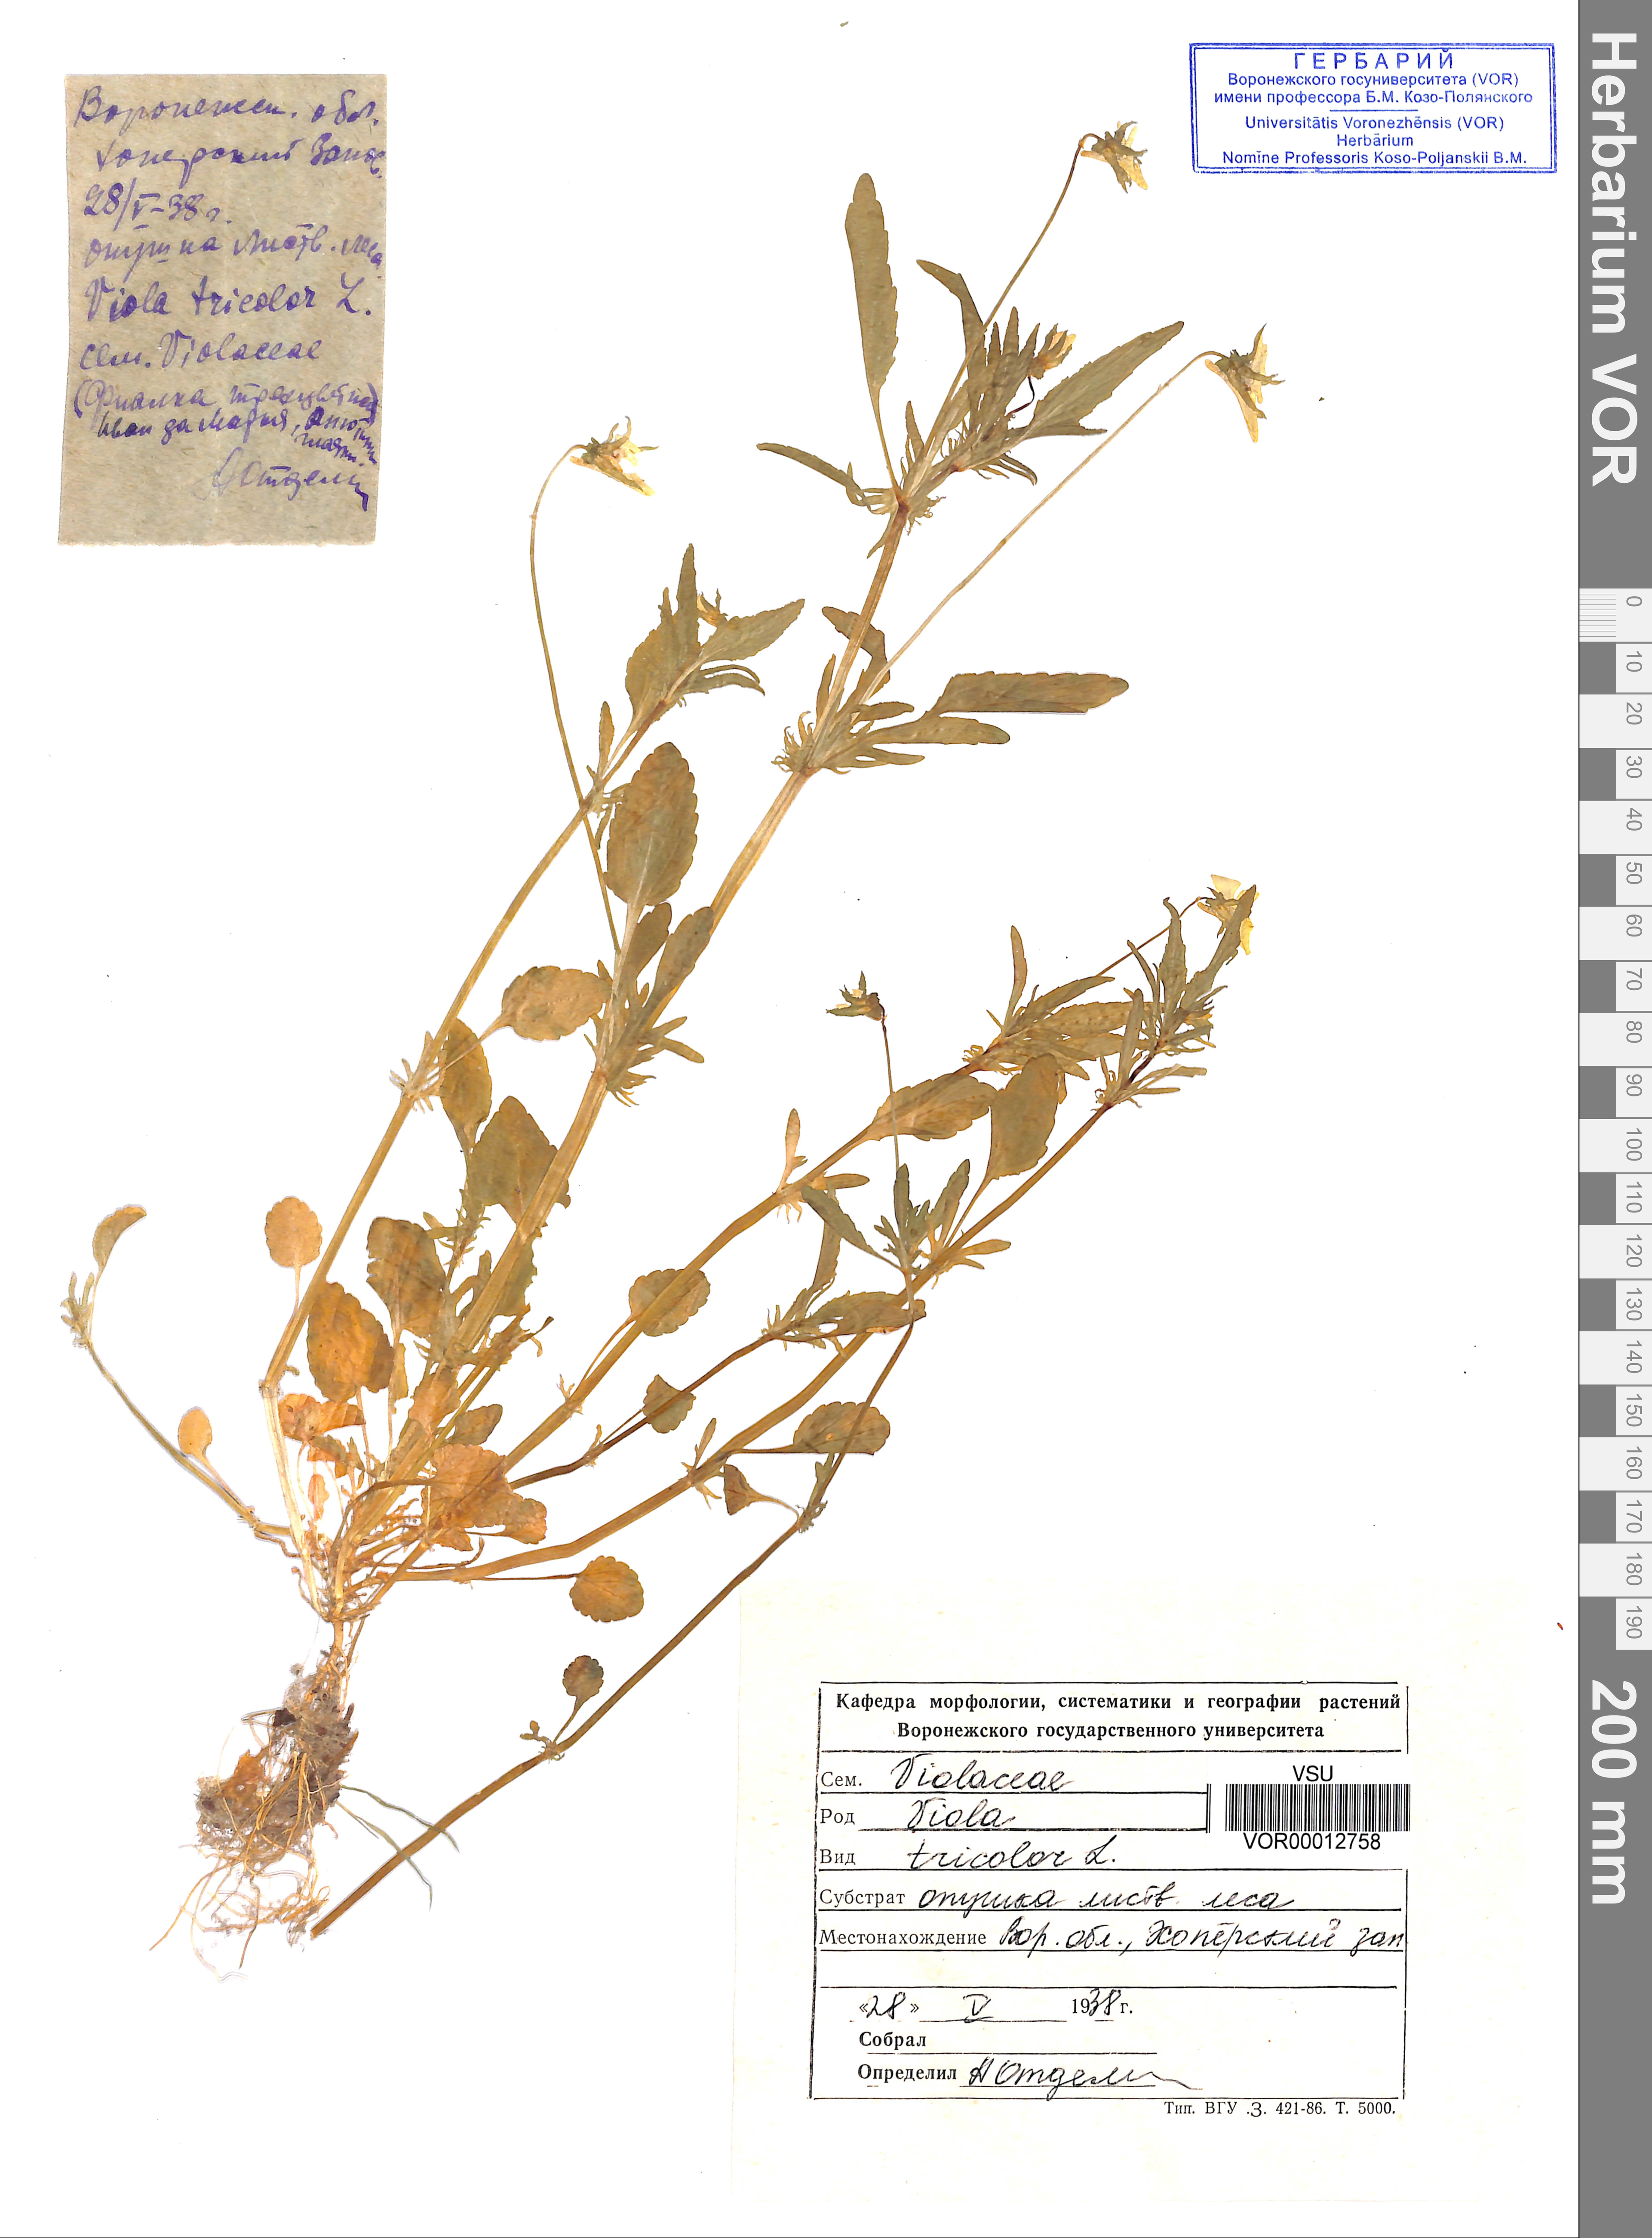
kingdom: Plantae
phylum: Tracheophyta
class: Magnoliopsida
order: Malpighiales
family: Violaceae
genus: Viola
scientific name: Viola tricolor
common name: Pansy
